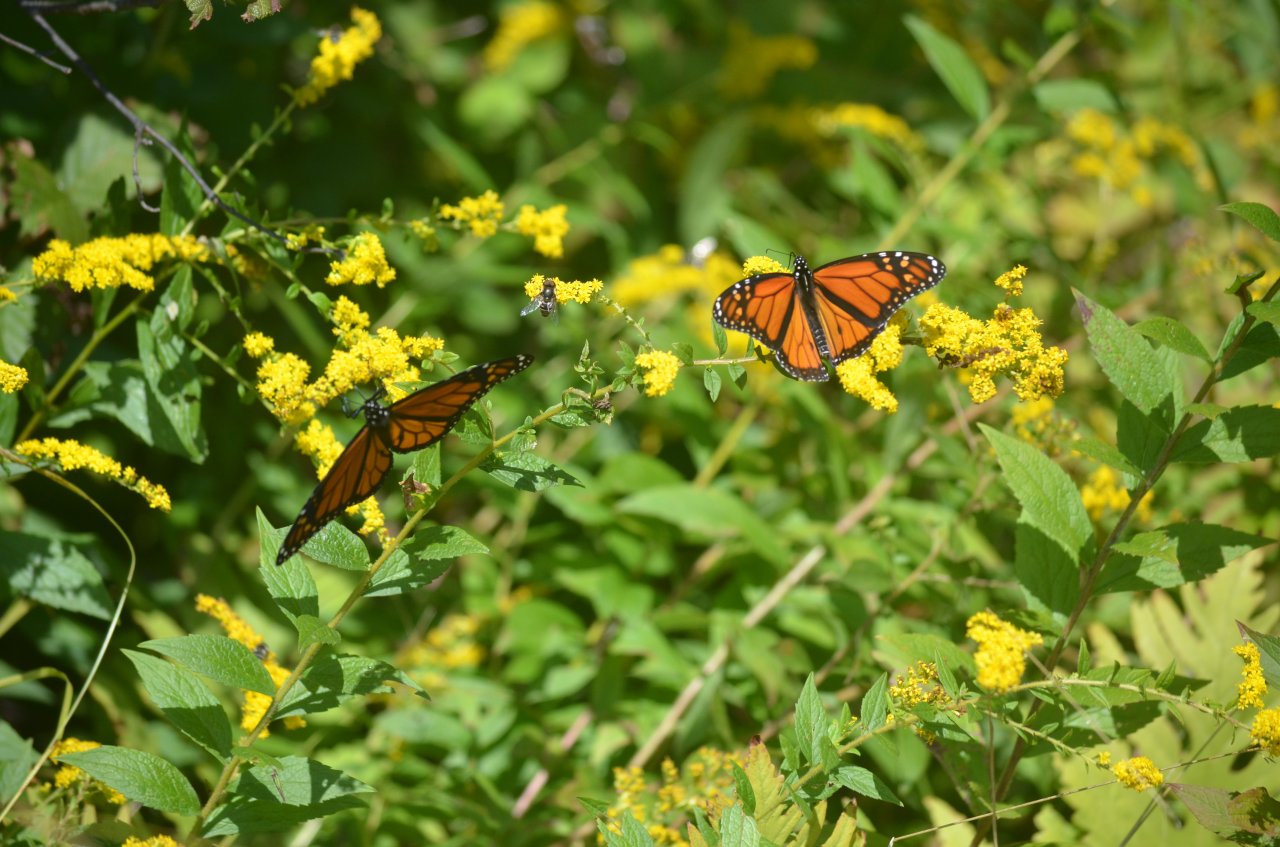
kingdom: Animalia
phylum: Arthropoda
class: Insecta
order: Lepidoptera
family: Nymphalidae
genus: Danaus
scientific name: Danaus plexippus
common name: Monarch
